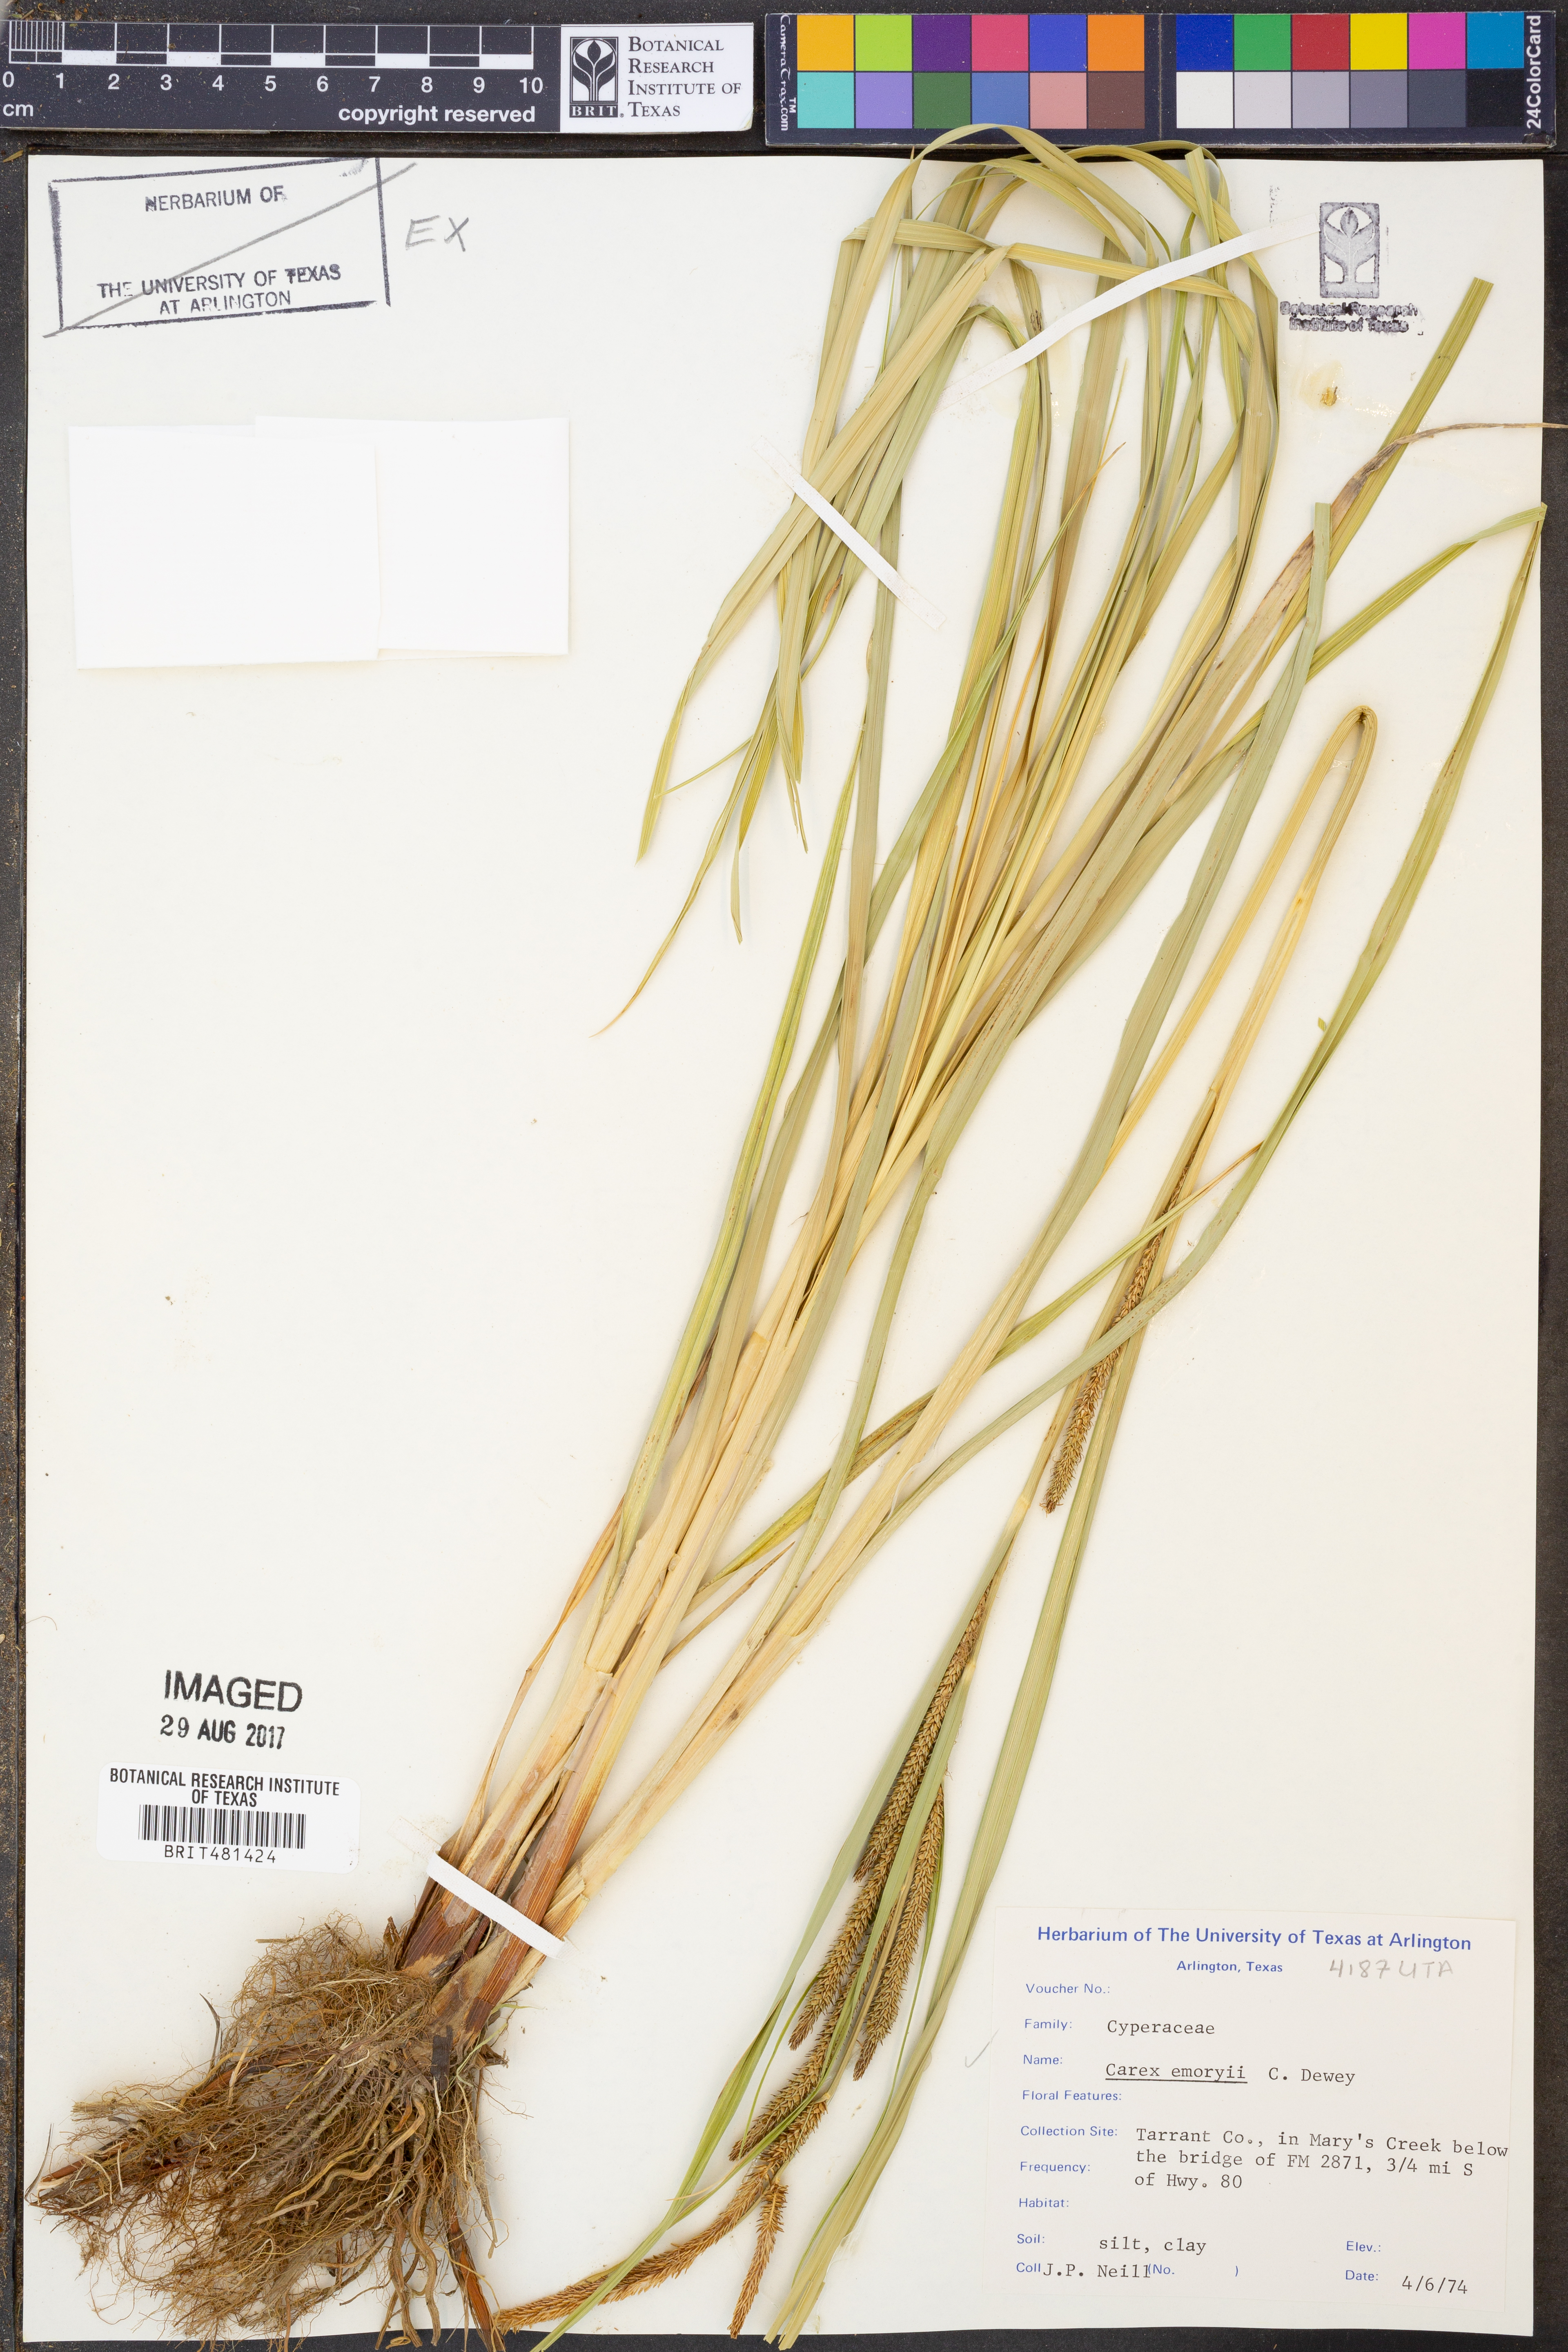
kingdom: Plantae
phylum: Tracheophyta
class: Liliopsida
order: Poales
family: Cyperaceae
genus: Carex
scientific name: Carex emoryi
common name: Emory's sedge
